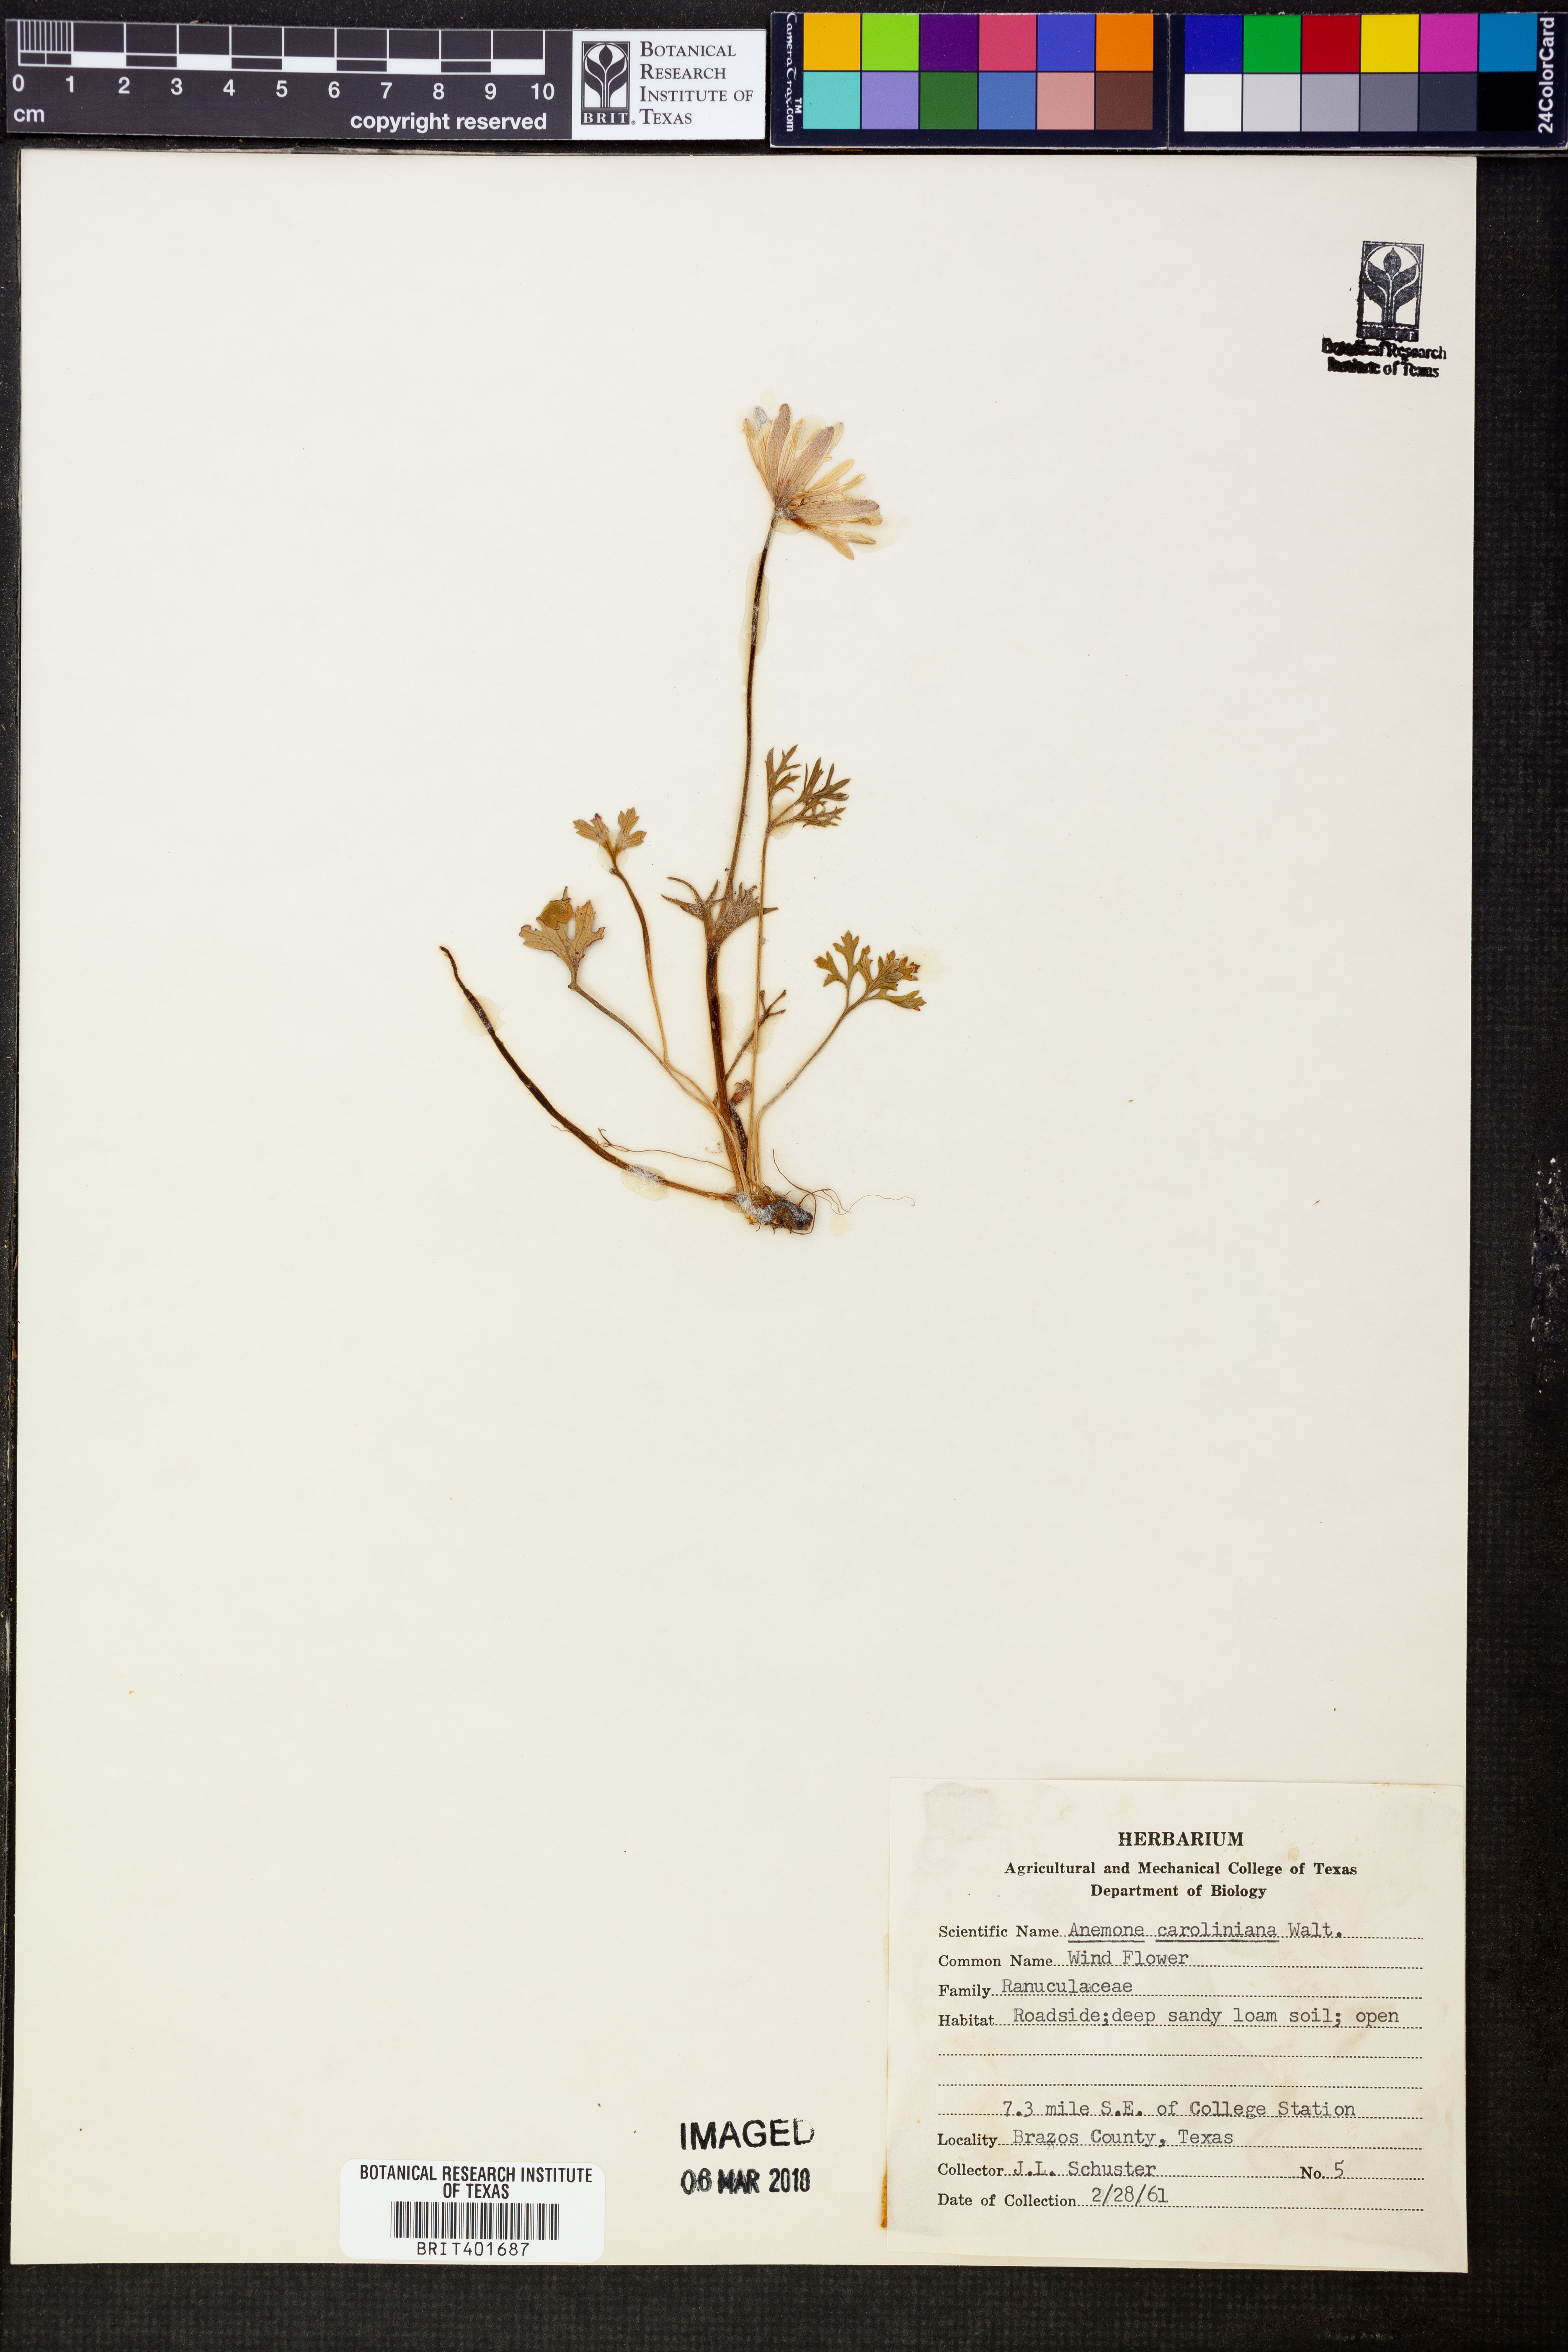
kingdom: Plantae
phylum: Tracheophyta
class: Magnoliopsida
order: Ranunculales
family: Ranunculaceae
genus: Anemone
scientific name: Anemone caroliniana
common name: Carolina anemone
